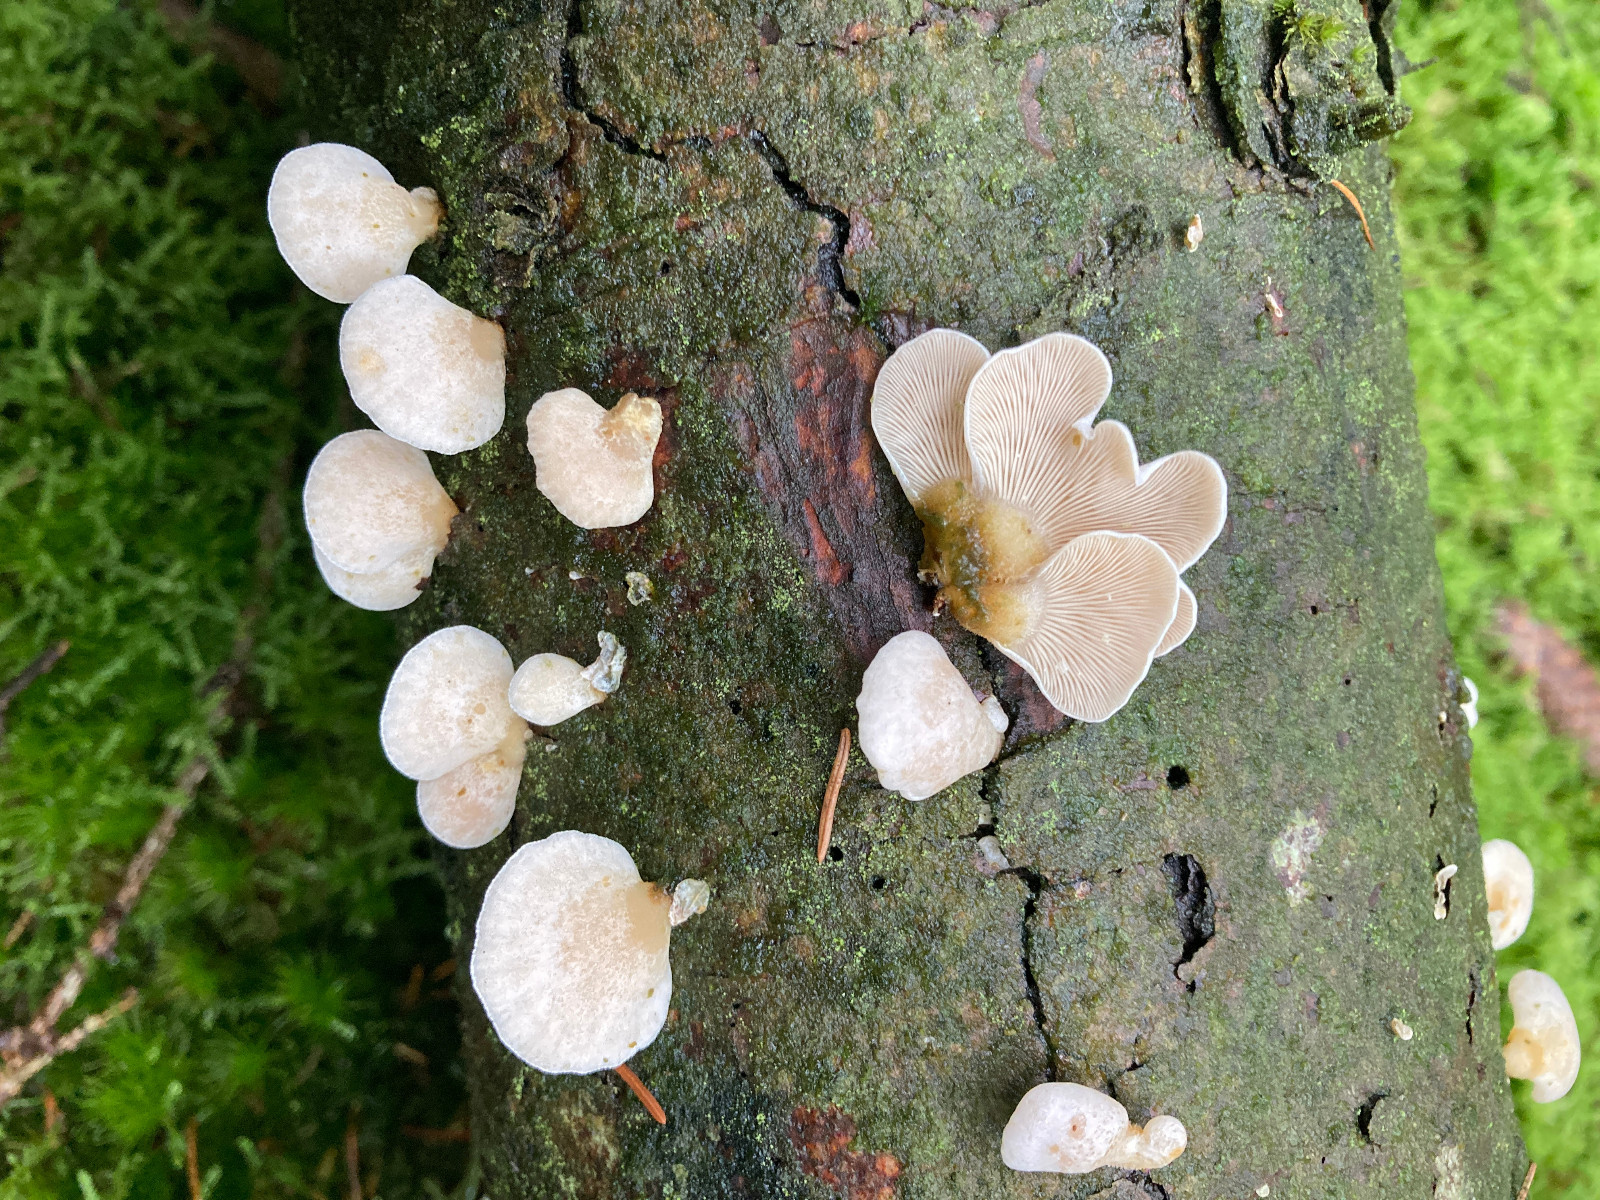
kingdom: Fungi
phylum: Basidiomycota
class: Agaricomycetes
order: Agaricales
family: Mycenaceae
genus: Panellus
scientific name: Panellus mitis
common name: mild epaulethat
